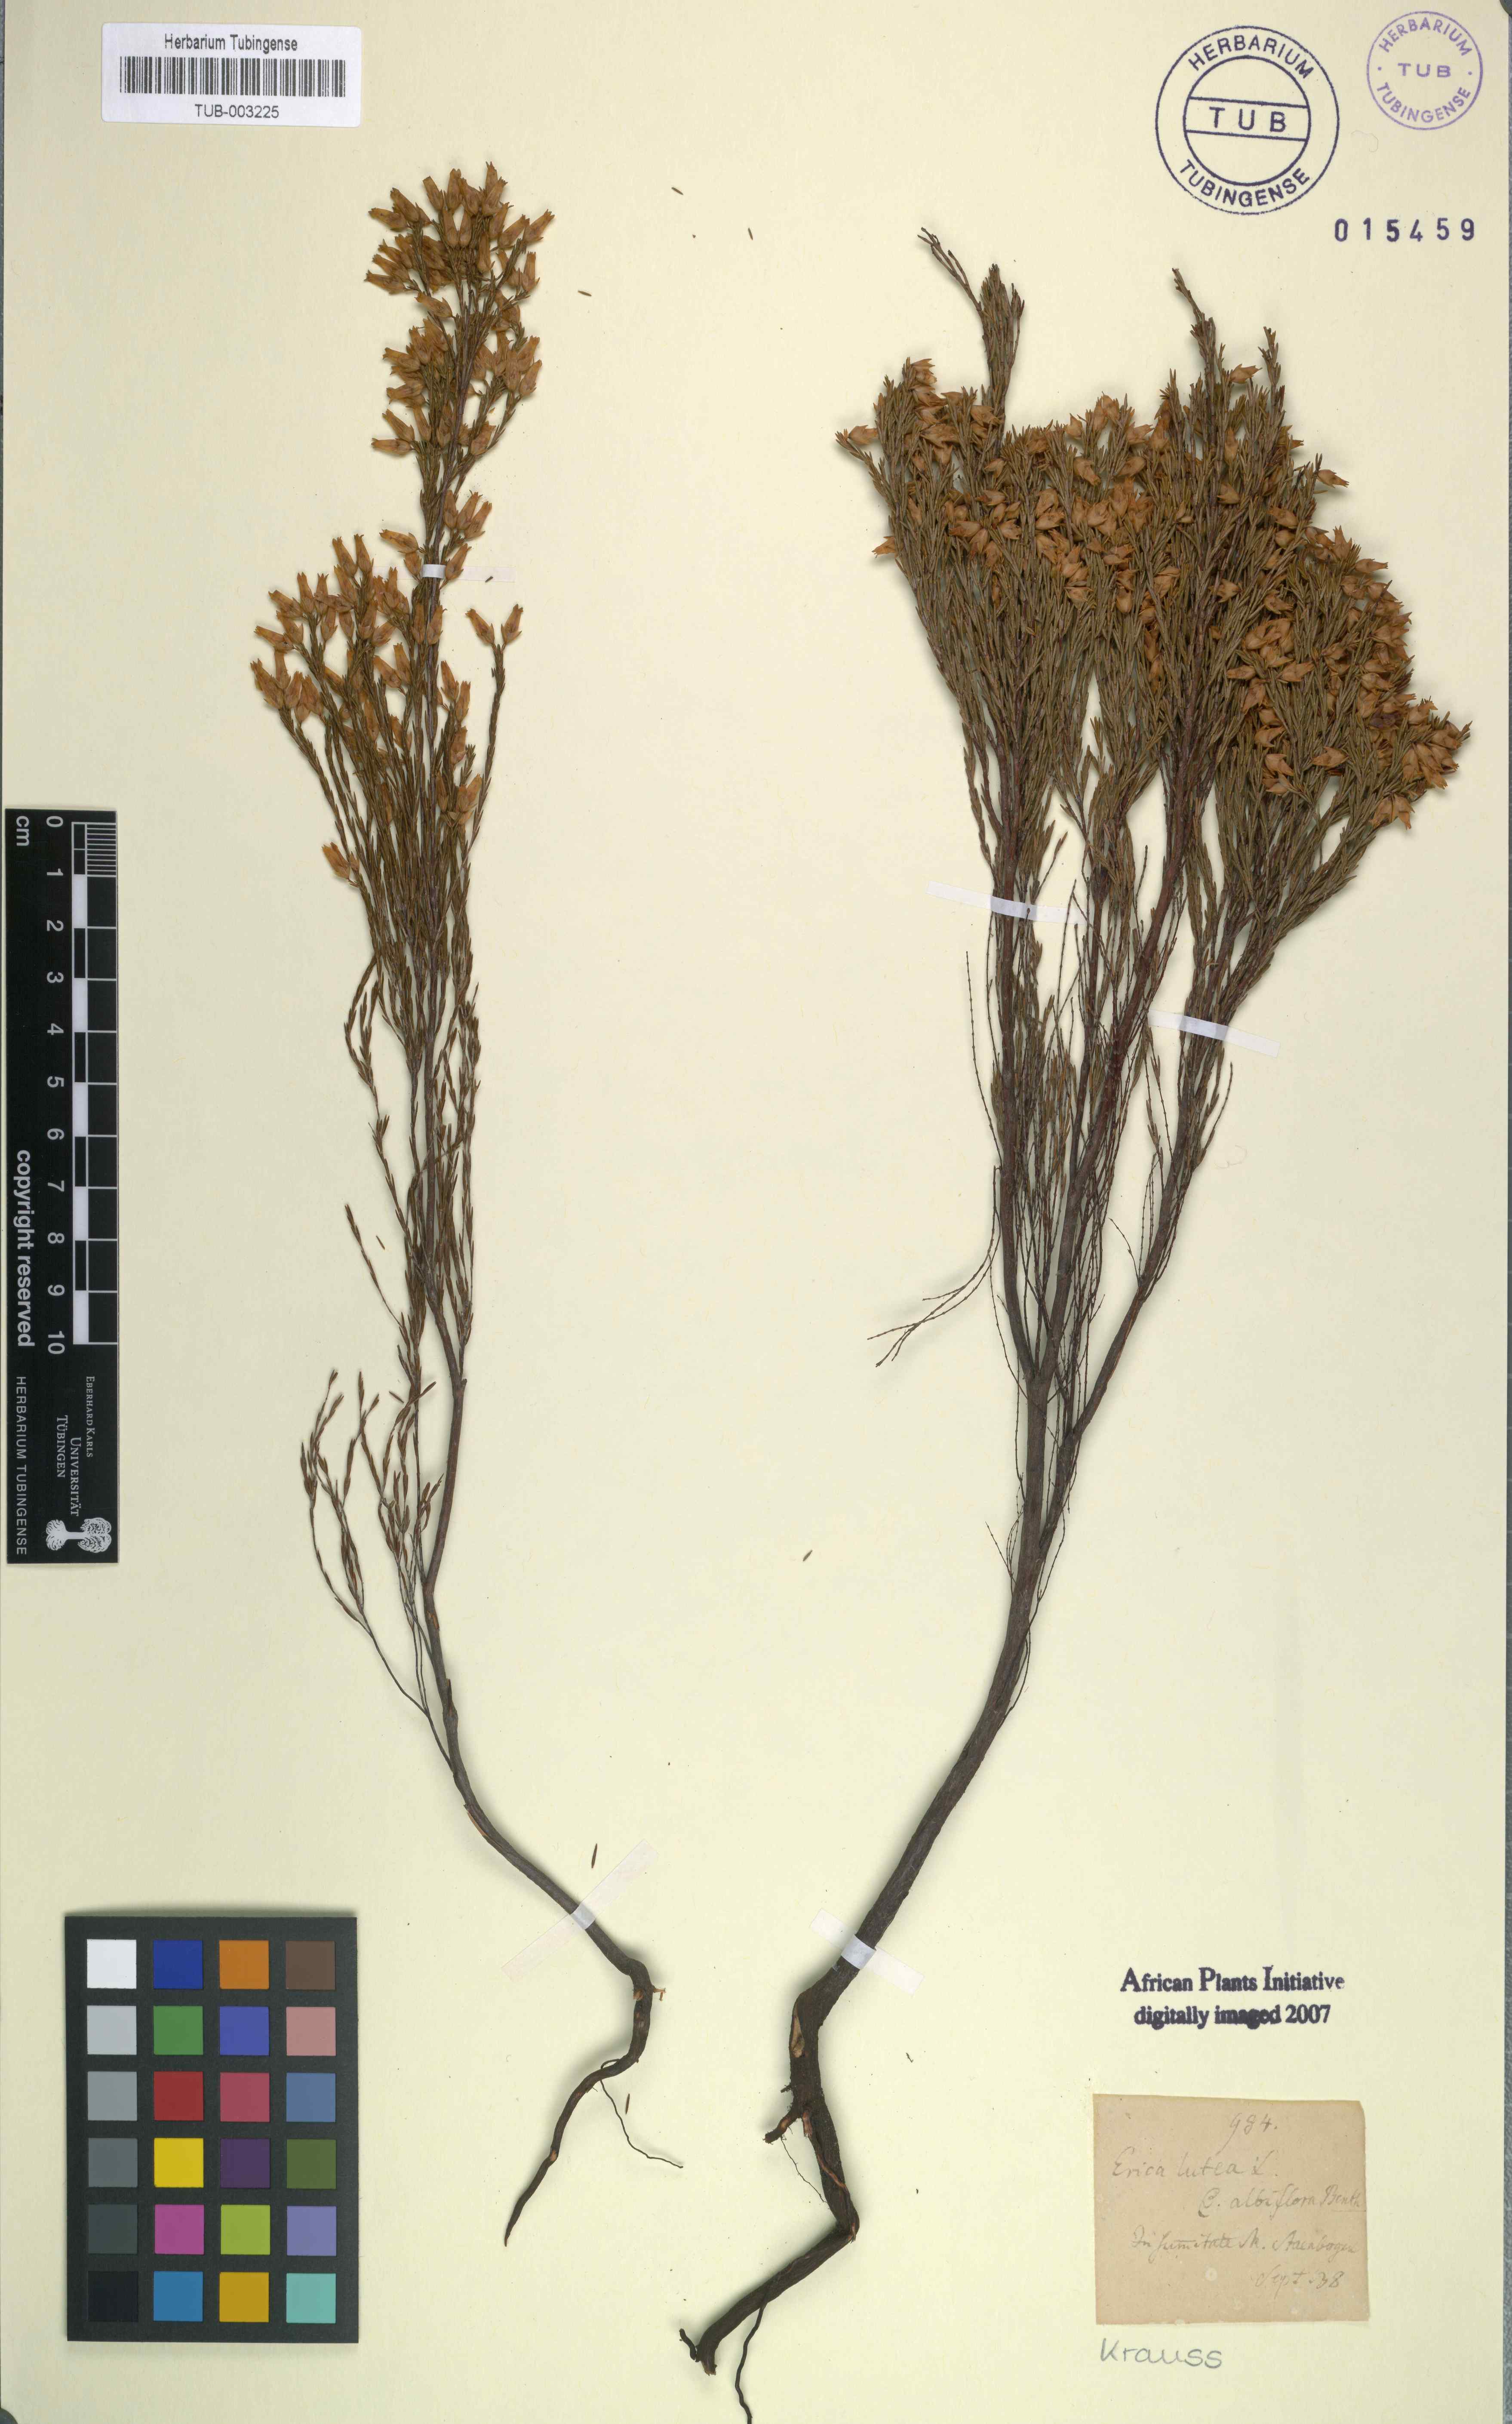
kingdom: Plantae
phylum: Tracheophyta
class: Magnoliopsida
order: Ericales
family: Ericaceae
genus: Erica
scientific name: Erica lutea
